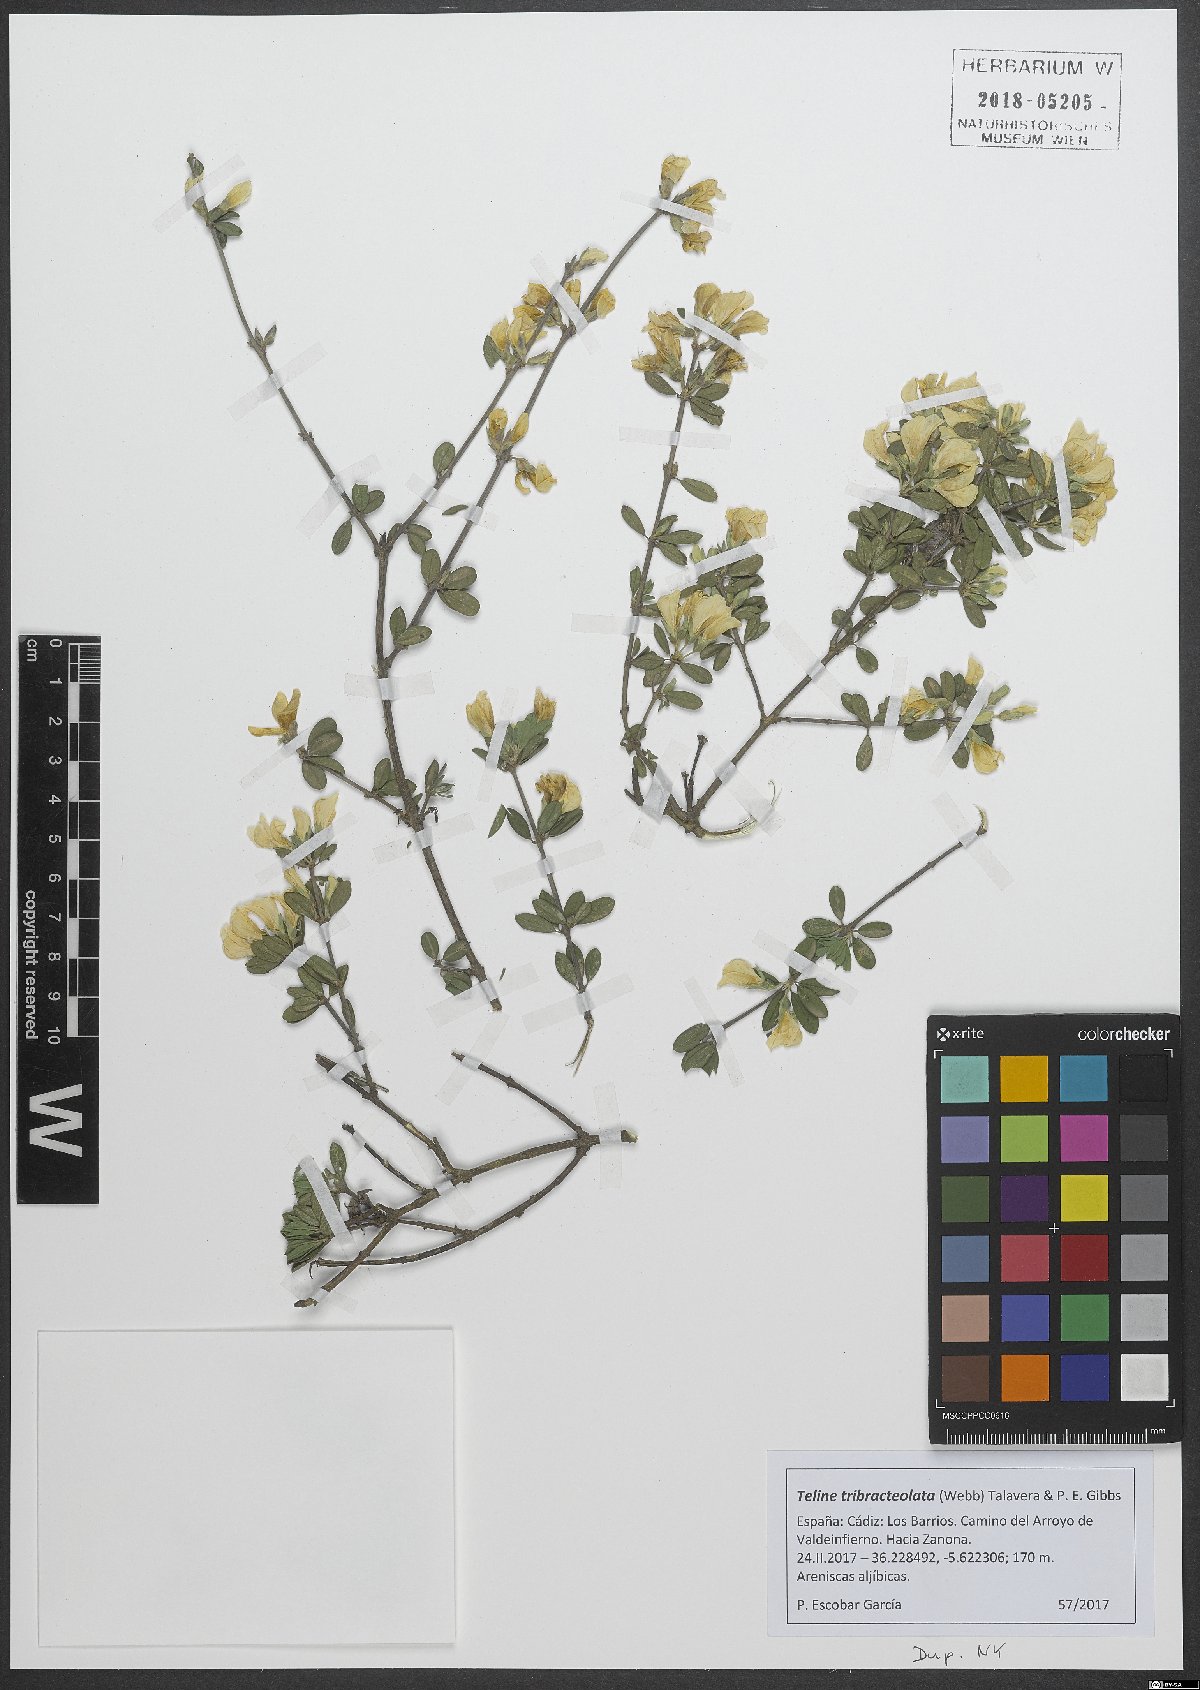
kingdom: Plantae
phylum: Tracheophyta
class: Magnoliopsida
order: Fabales
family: Fabaceae
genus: Genista
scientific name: Genista tribracteolata
